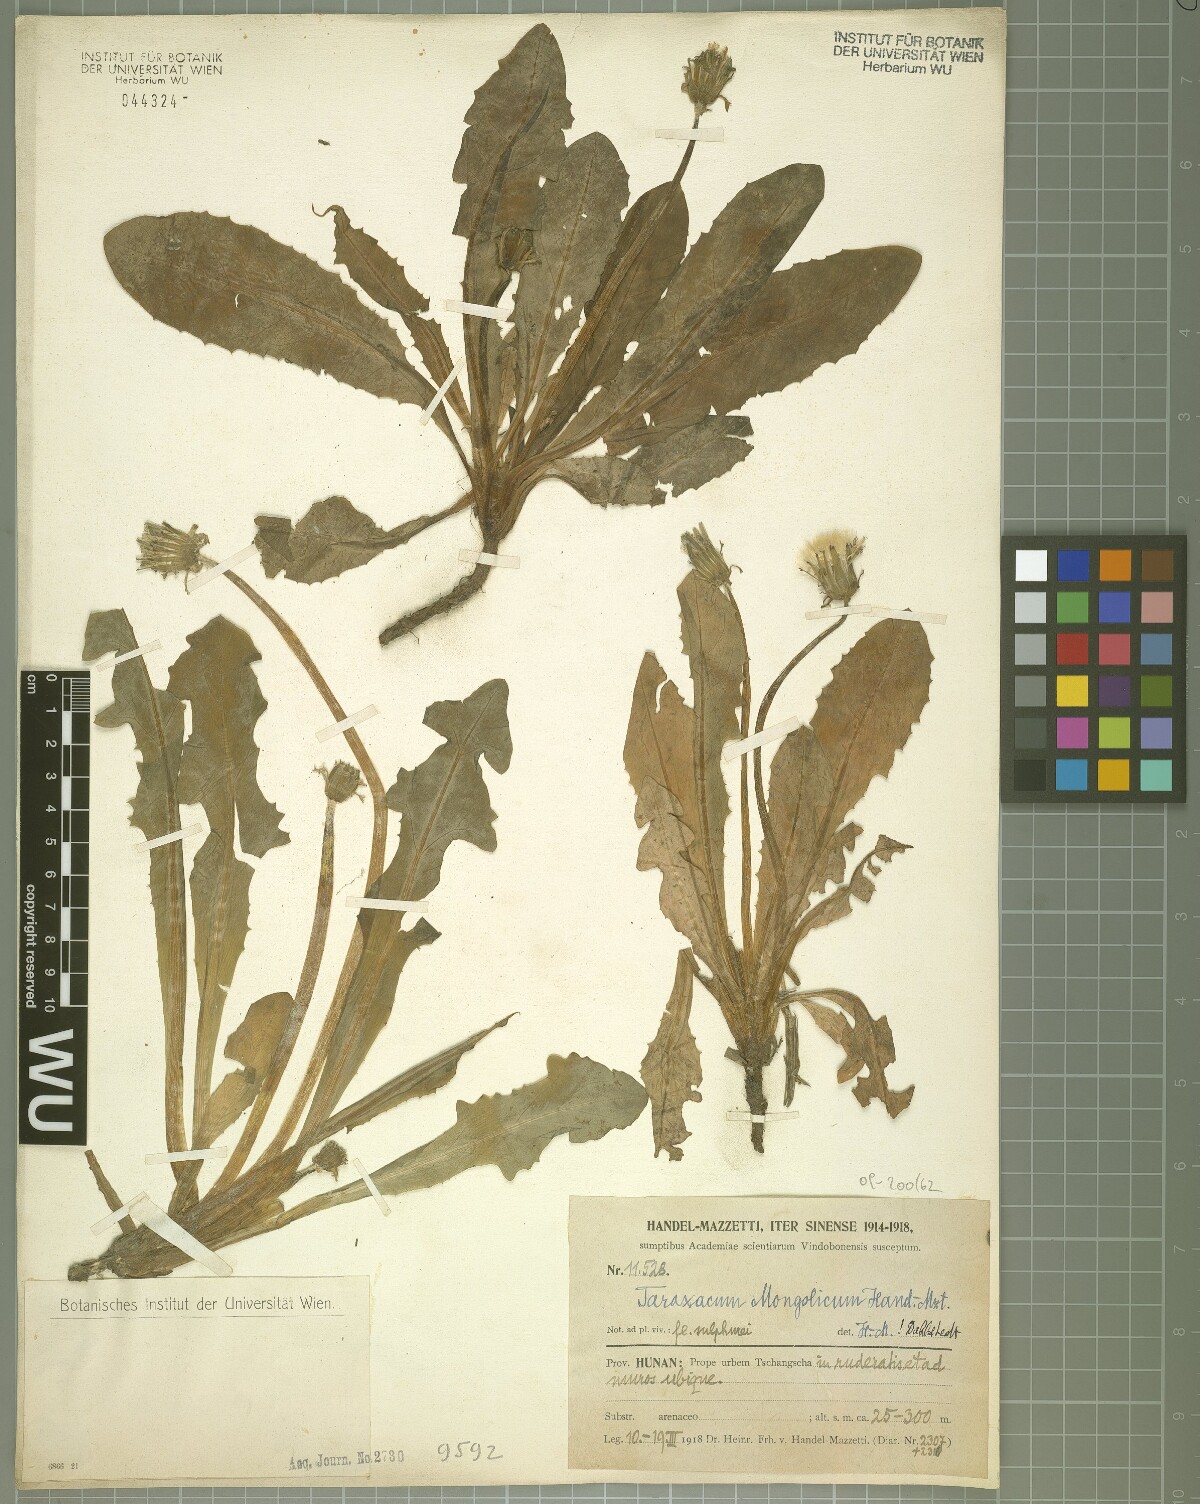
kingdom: Plantae
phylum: Tracheophyta
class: Magnoliopsida
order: Asterales
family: Asteraceae
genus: Taraxacum
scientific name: Taraxacum mongolicum
